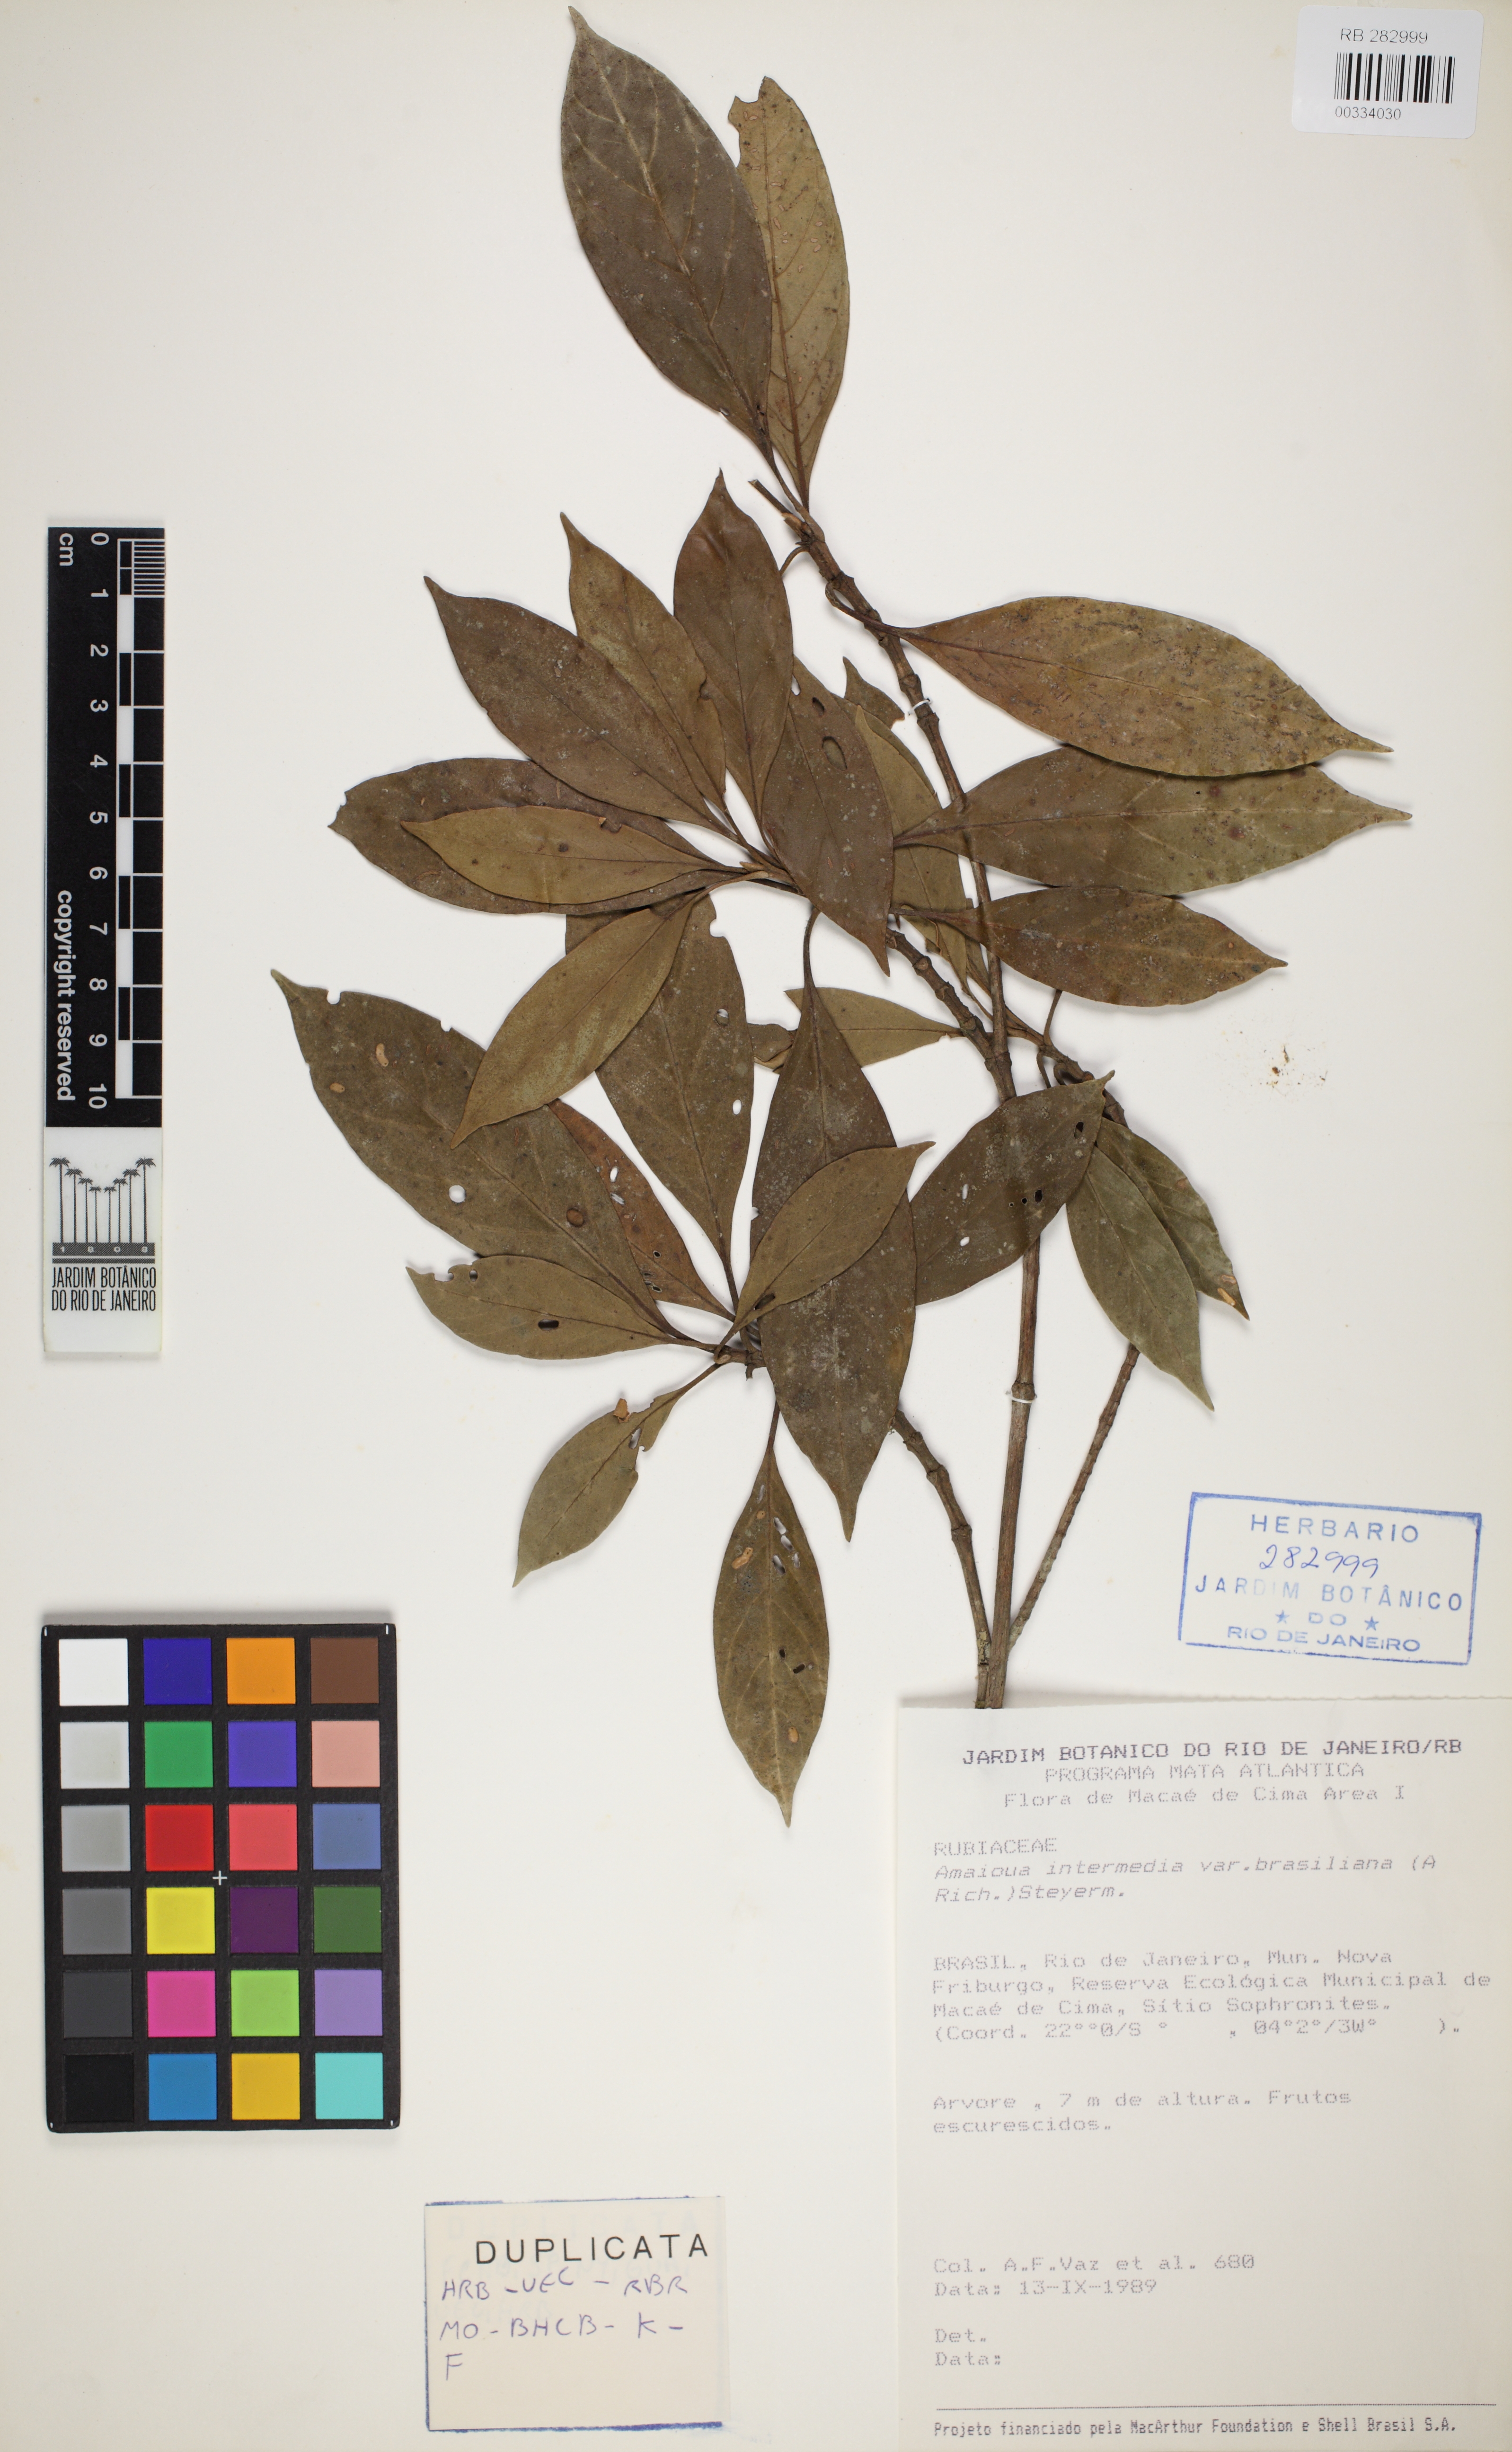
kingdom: Plantae
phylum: Tracheophyta
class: Magnoliopsida
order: Gentianales
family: Rubiaceae
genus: Amaioua
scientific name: Amaioua intermedia
